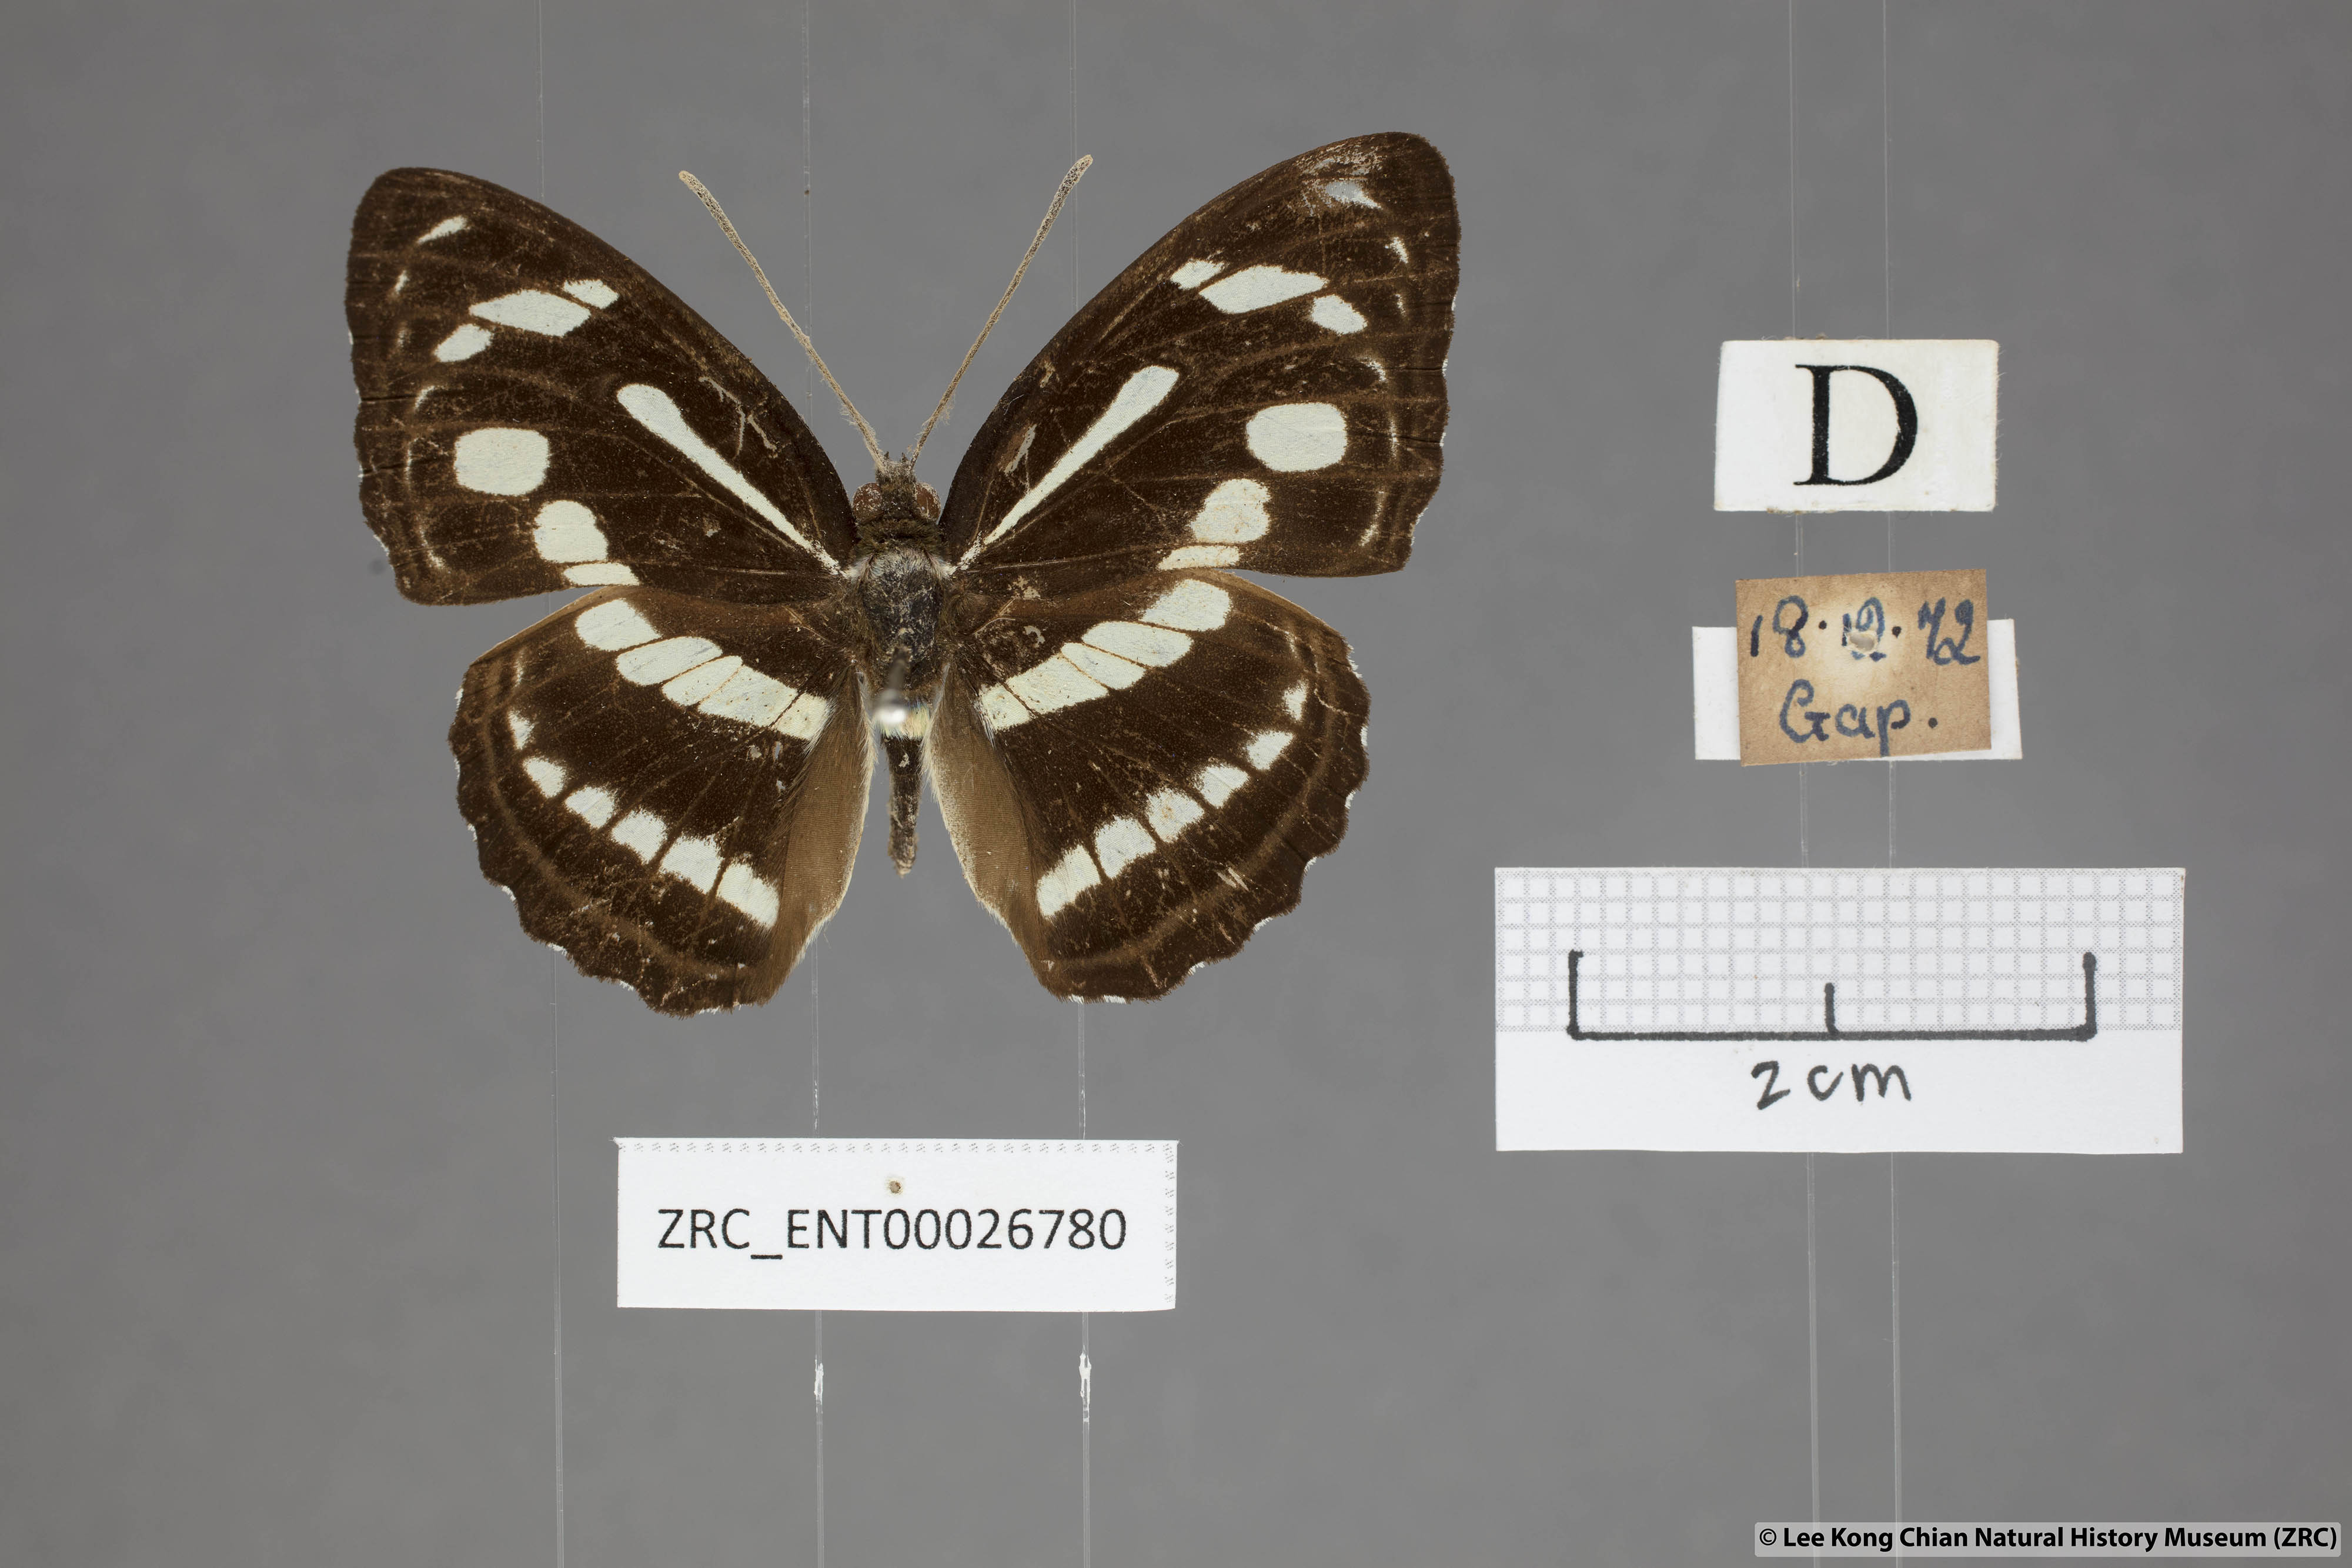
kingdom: Animalia
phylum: Arthropoda
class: Insecta
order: Lepidoptera
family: Nymphalidae
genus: Parathyma
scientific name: Parathyma pravara
